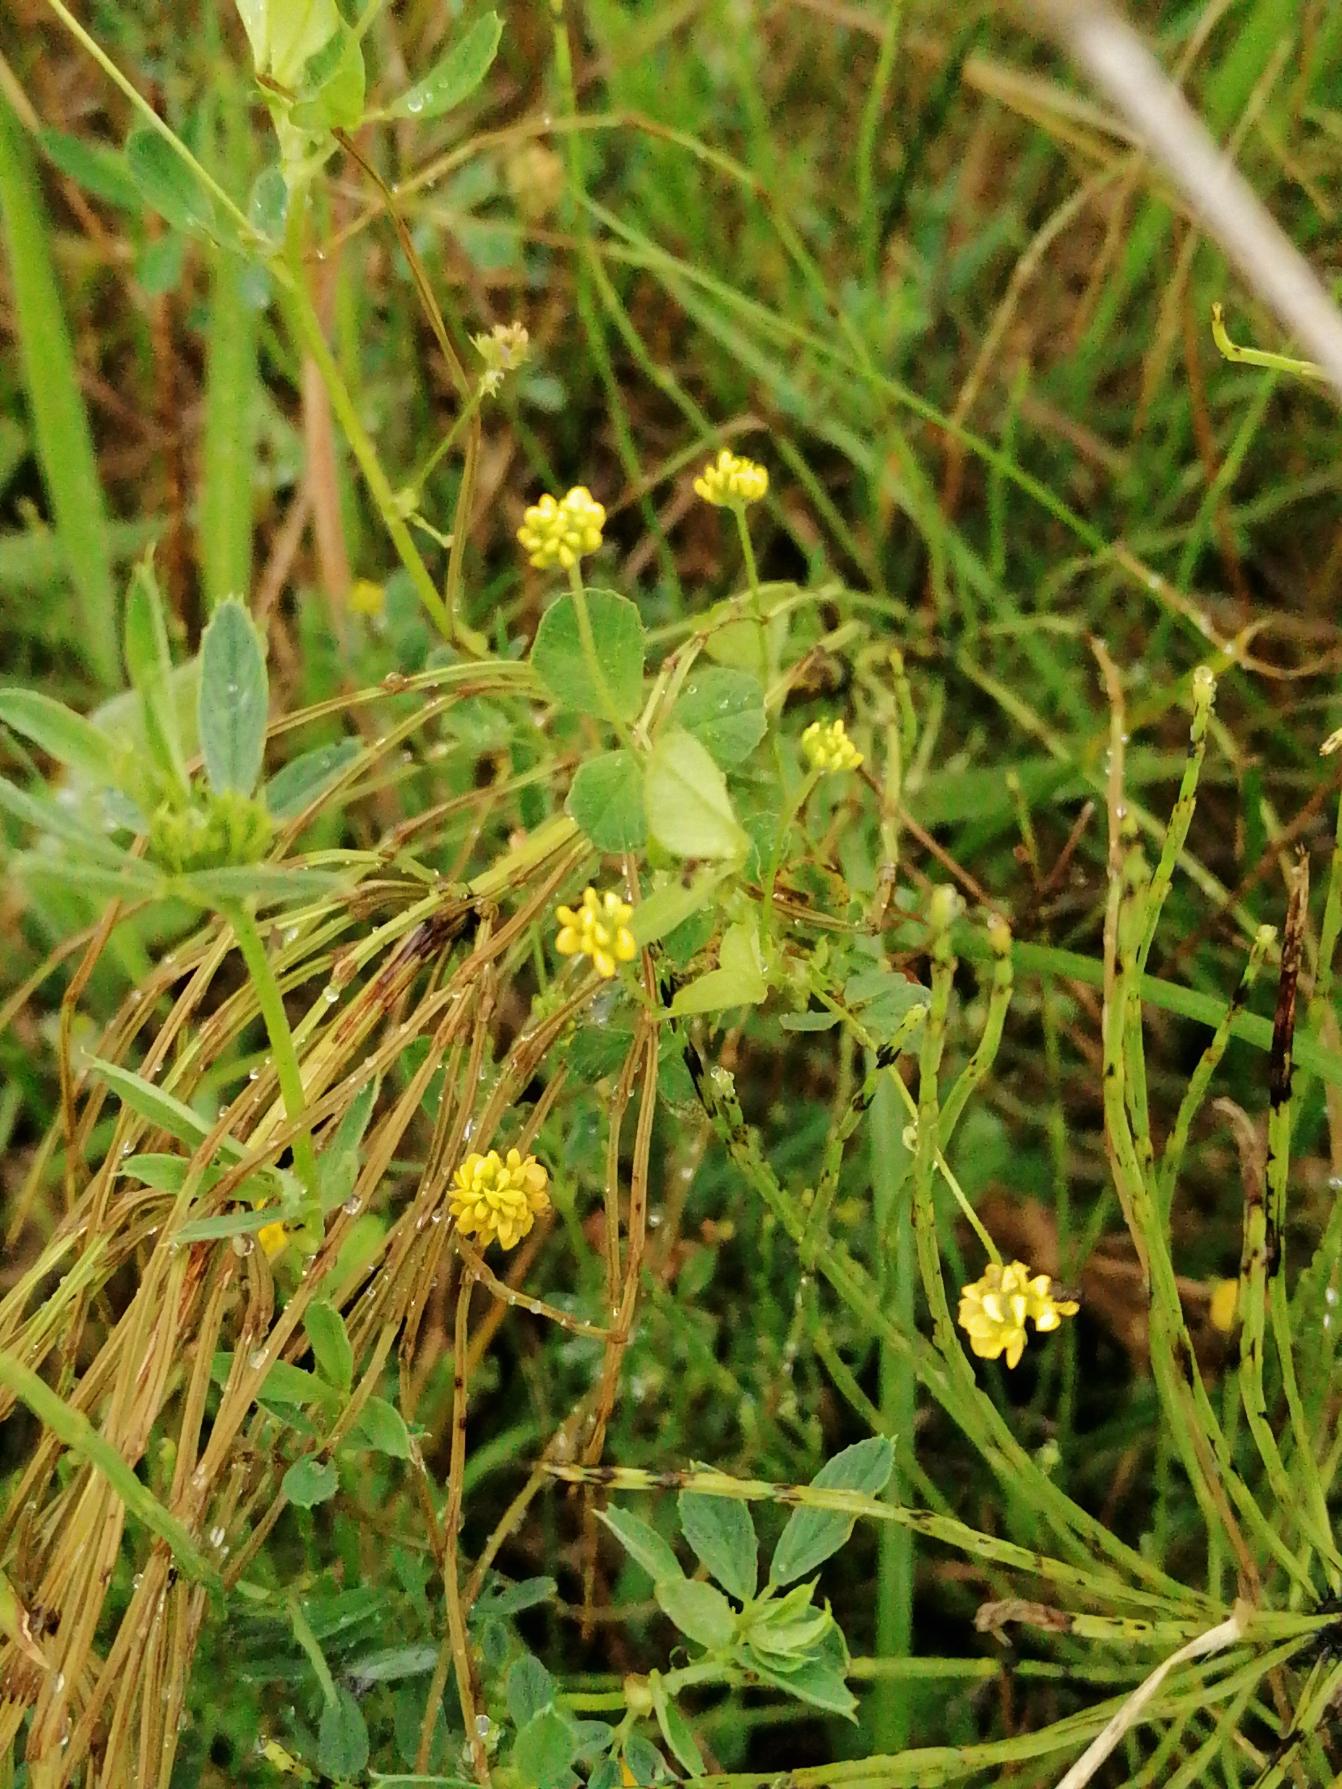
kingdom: Plantae
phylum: Tracheophyta
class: Magnoliopsida
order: Fabales
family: Fabaceae
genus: Medicago
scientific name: Medicago lupulina
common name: Humle-sneglebælg
